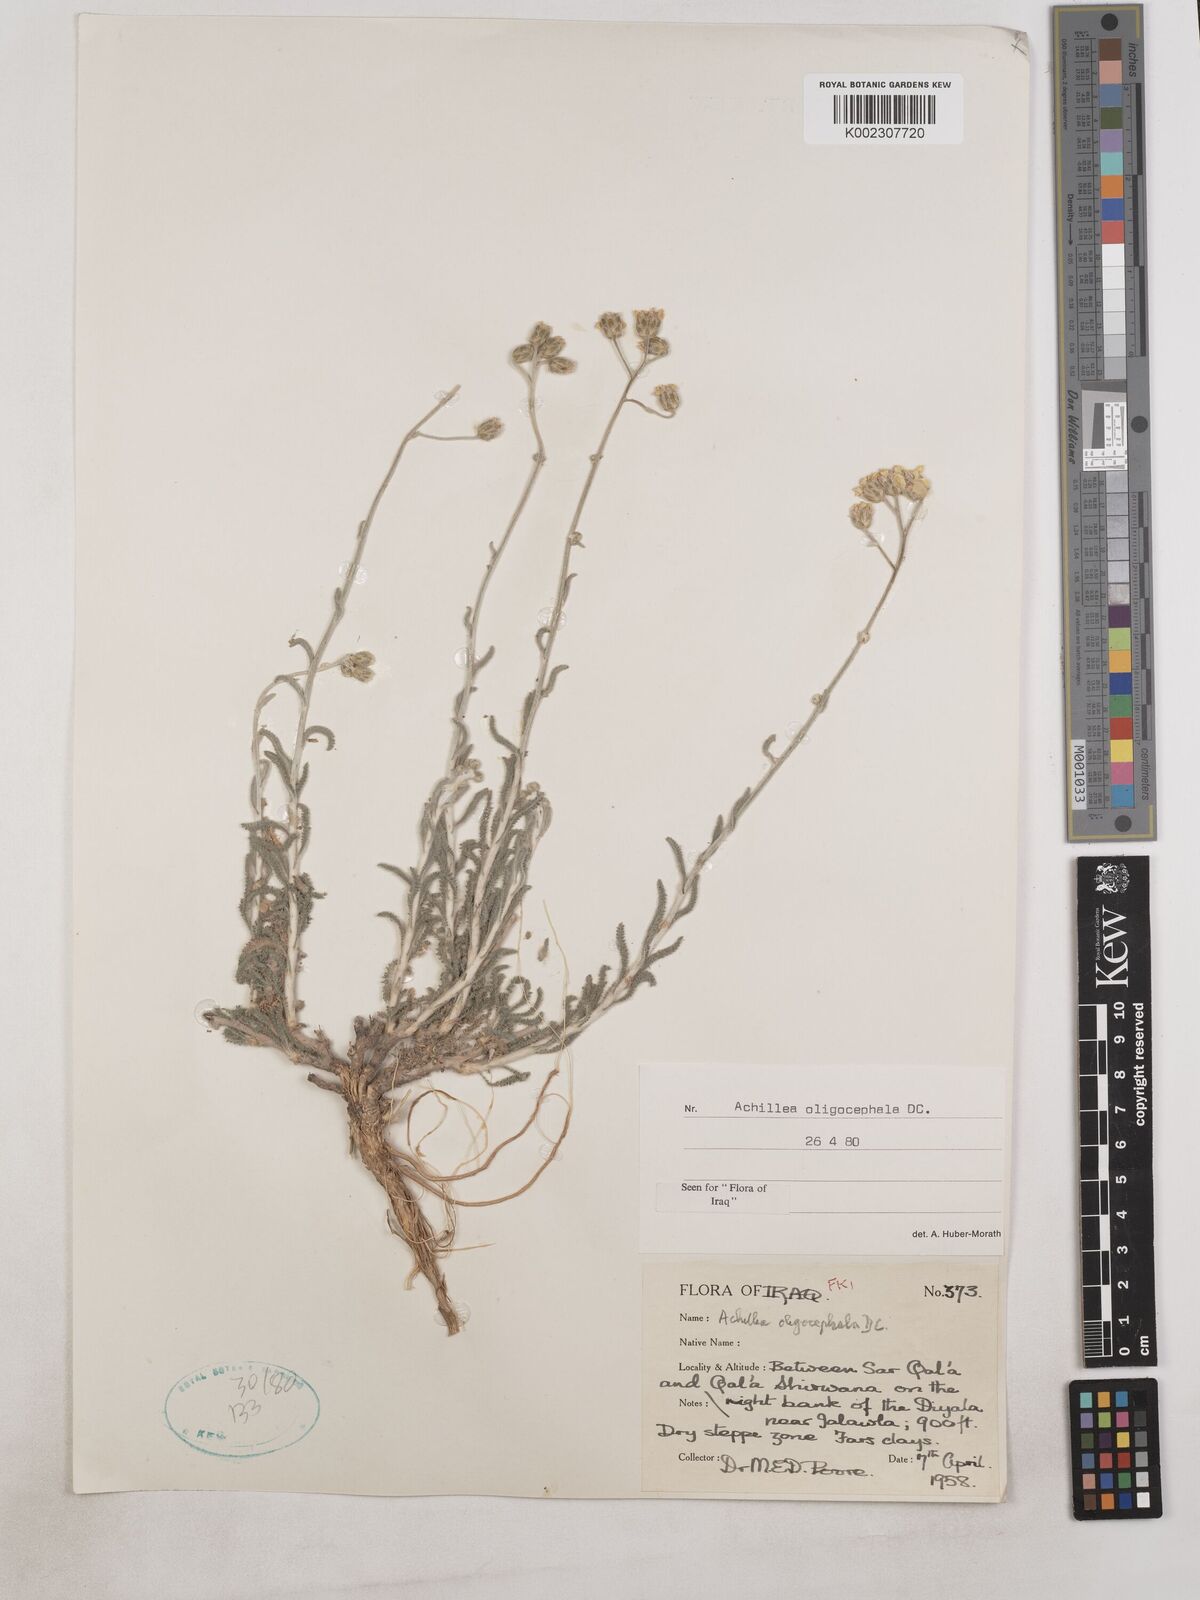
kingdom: Plantae
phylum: Tracheophyta
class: Magnoliopsida
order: Asterales
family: Asteraceae
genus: Achillea
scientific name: Achillea oligocephala
